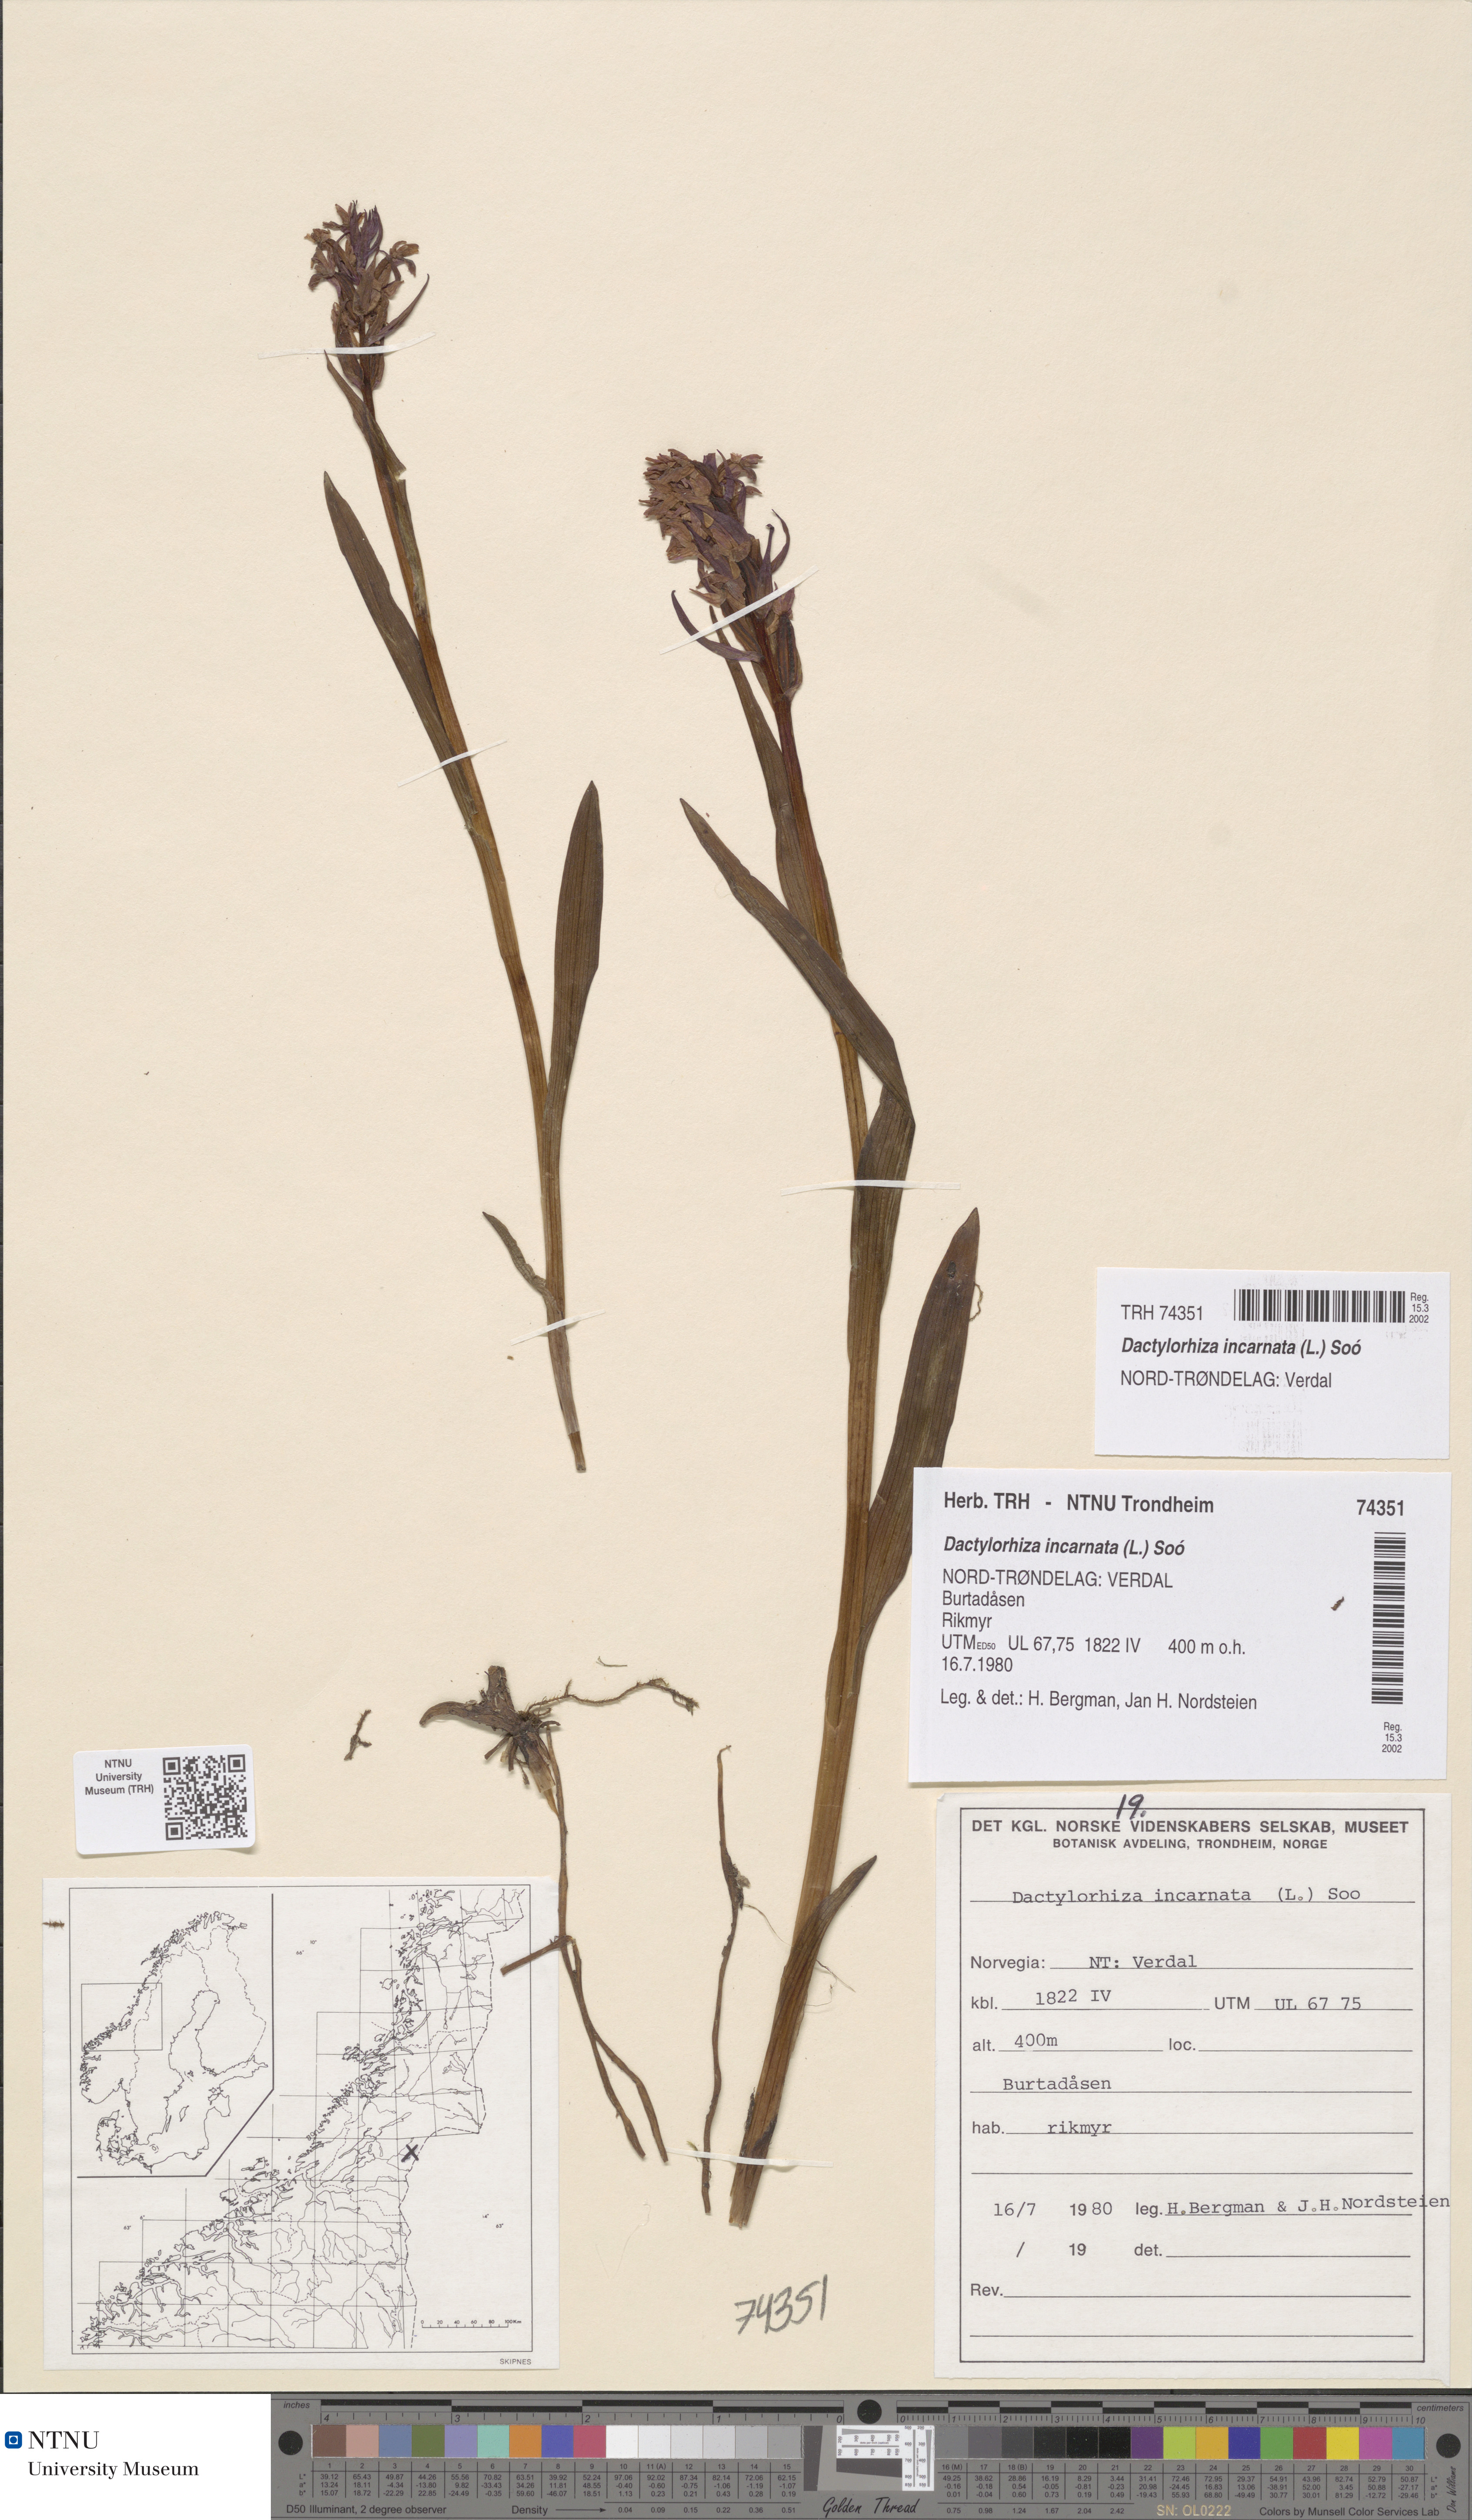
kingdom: Plantae
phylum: Tracheophyta
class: Liliopsida
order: Asparagales
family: Orchidaceae
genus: Dactylorhiza
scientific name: Dactylorhiza incarnata
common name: Early marsh-orchid
